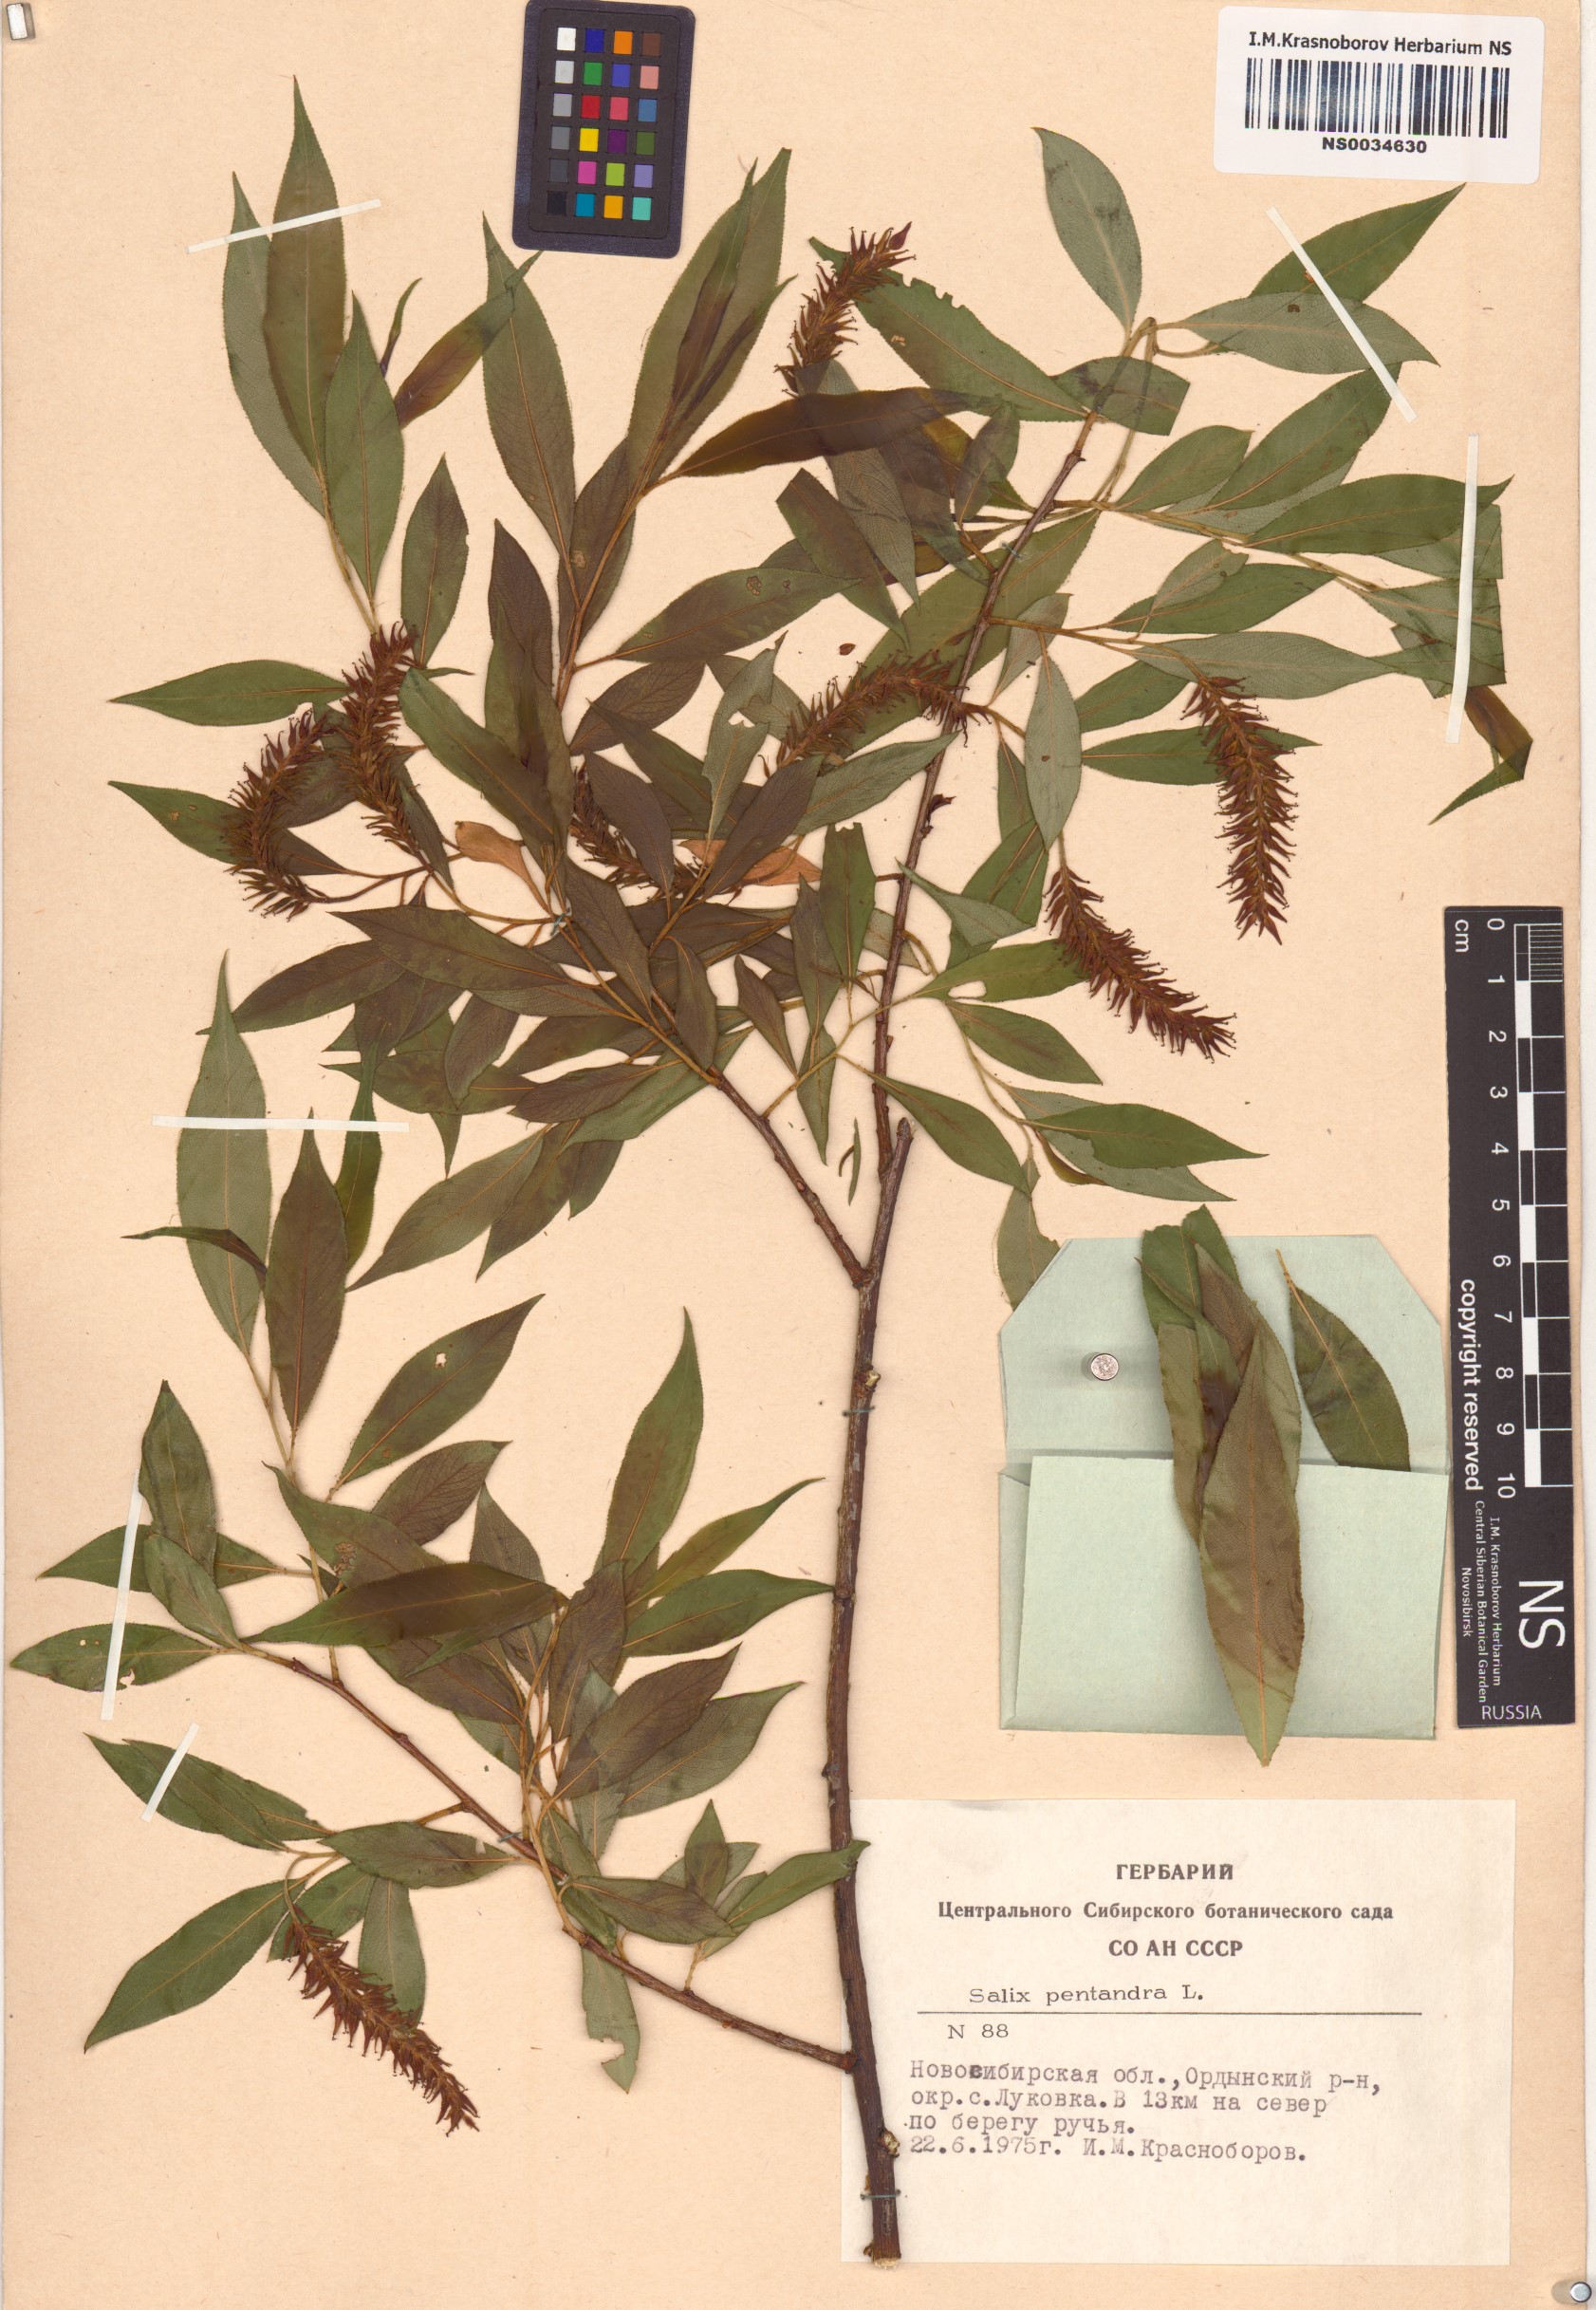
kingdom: Plantae
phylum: Tracheophyta
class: Magnoliopsida
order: Malpighiales
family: Salicaceae
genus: Salix
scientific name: Salix pentandra
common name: Bay willow
